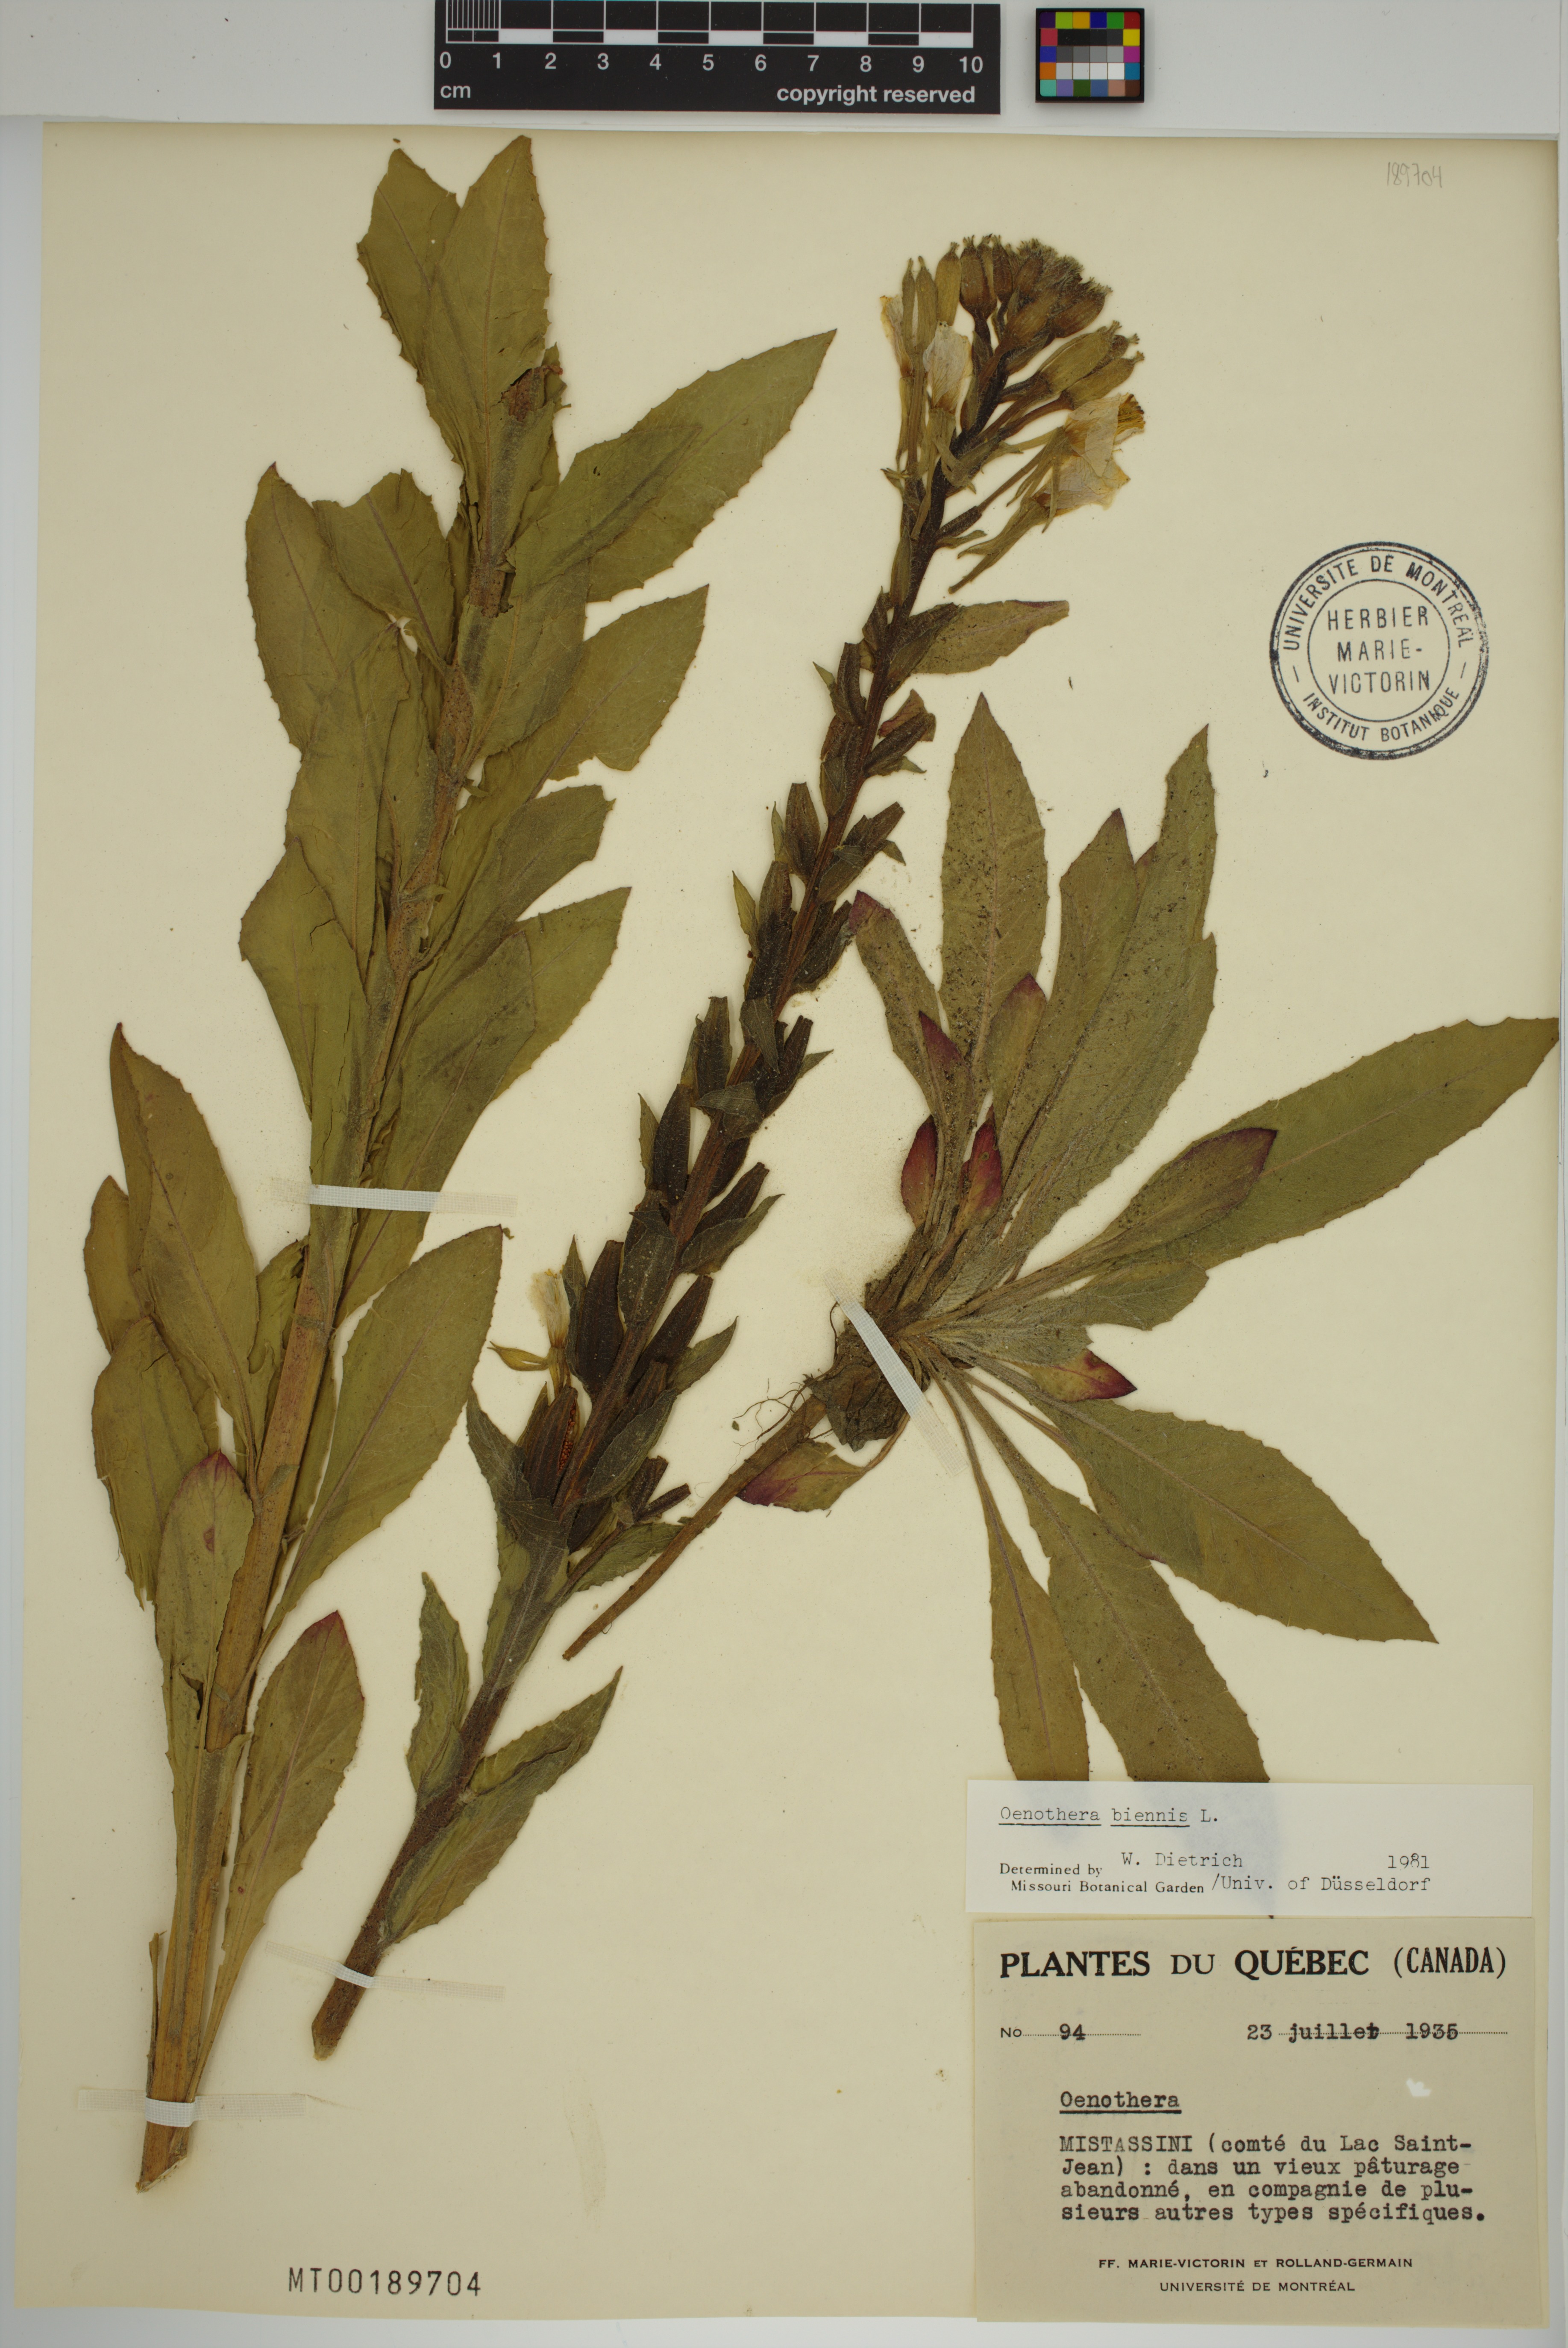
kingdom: Plantae
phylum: Tracheophyta
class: Magnoliopsida
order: Myrtales
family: Onagraceae
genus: Oenothera
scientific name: Oenothera biennis
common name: Common evening-primrose
